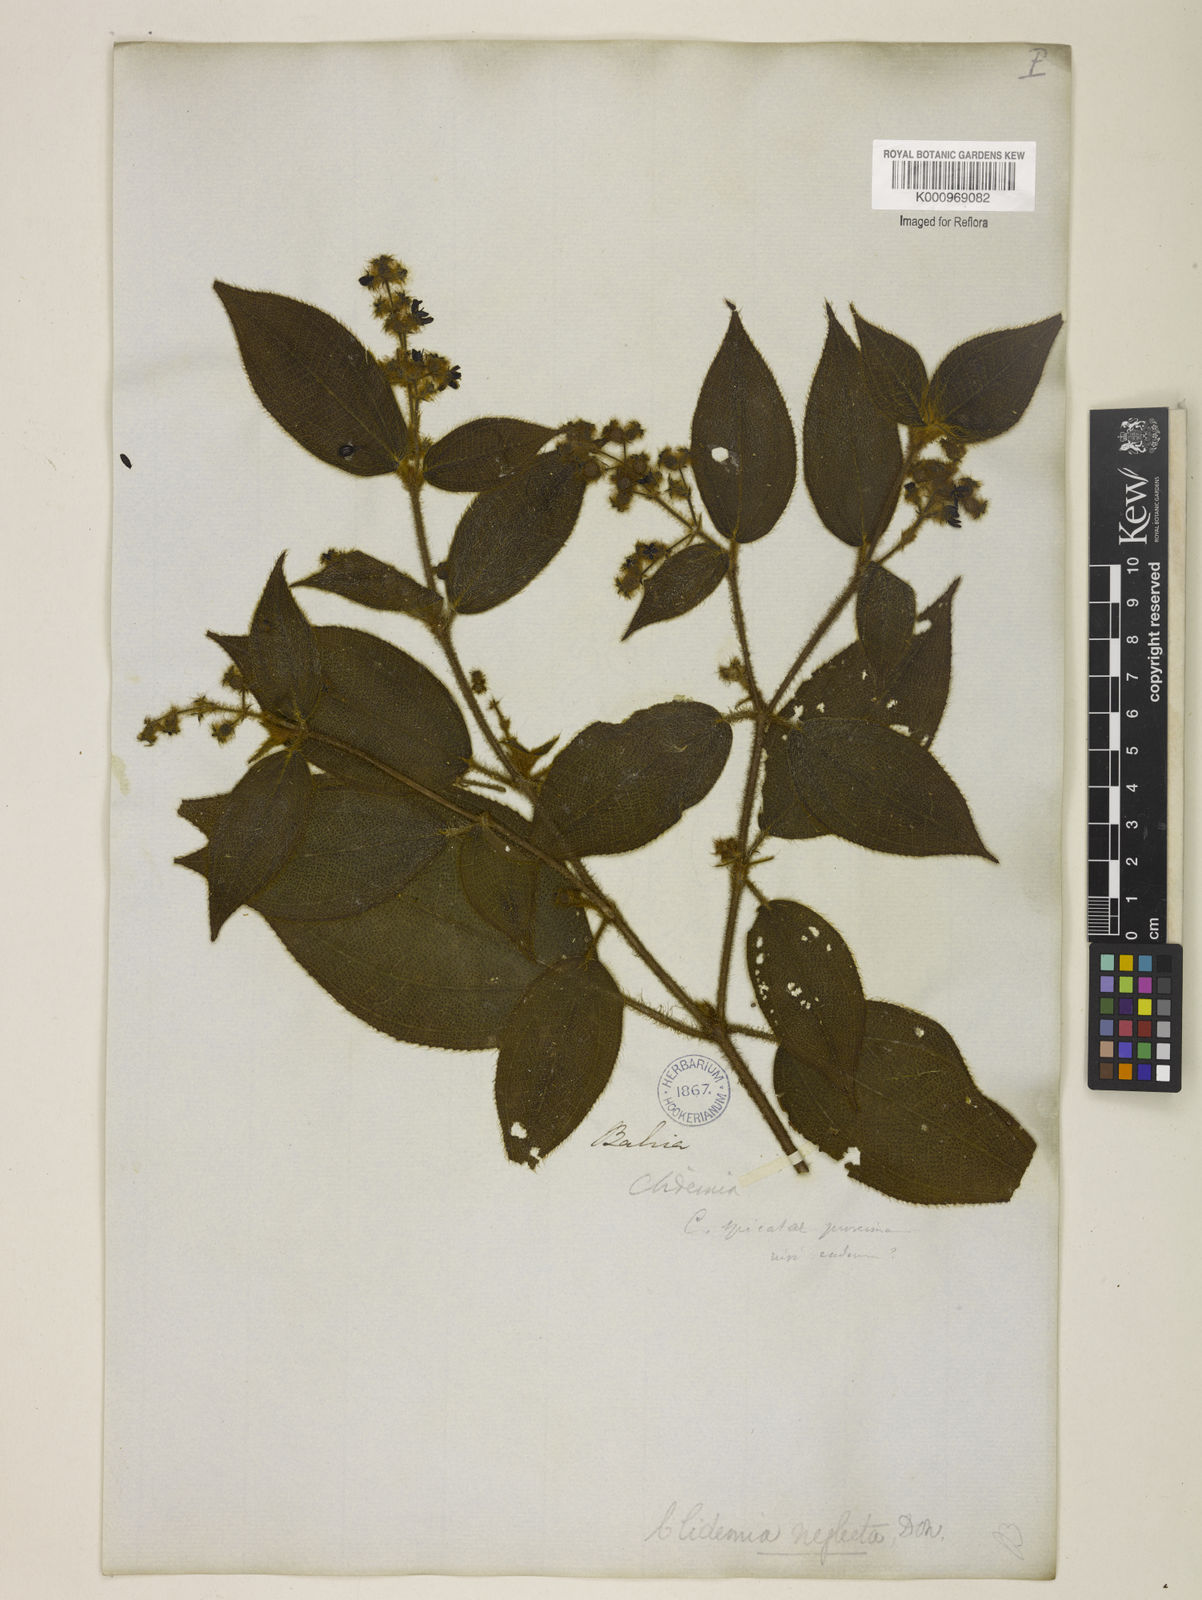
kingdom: Plantae
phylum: Tracheophyta
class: Magnoliopsida
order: Myrtales
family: Melastomataceae
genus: Miconia
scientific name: Miconia dependens
